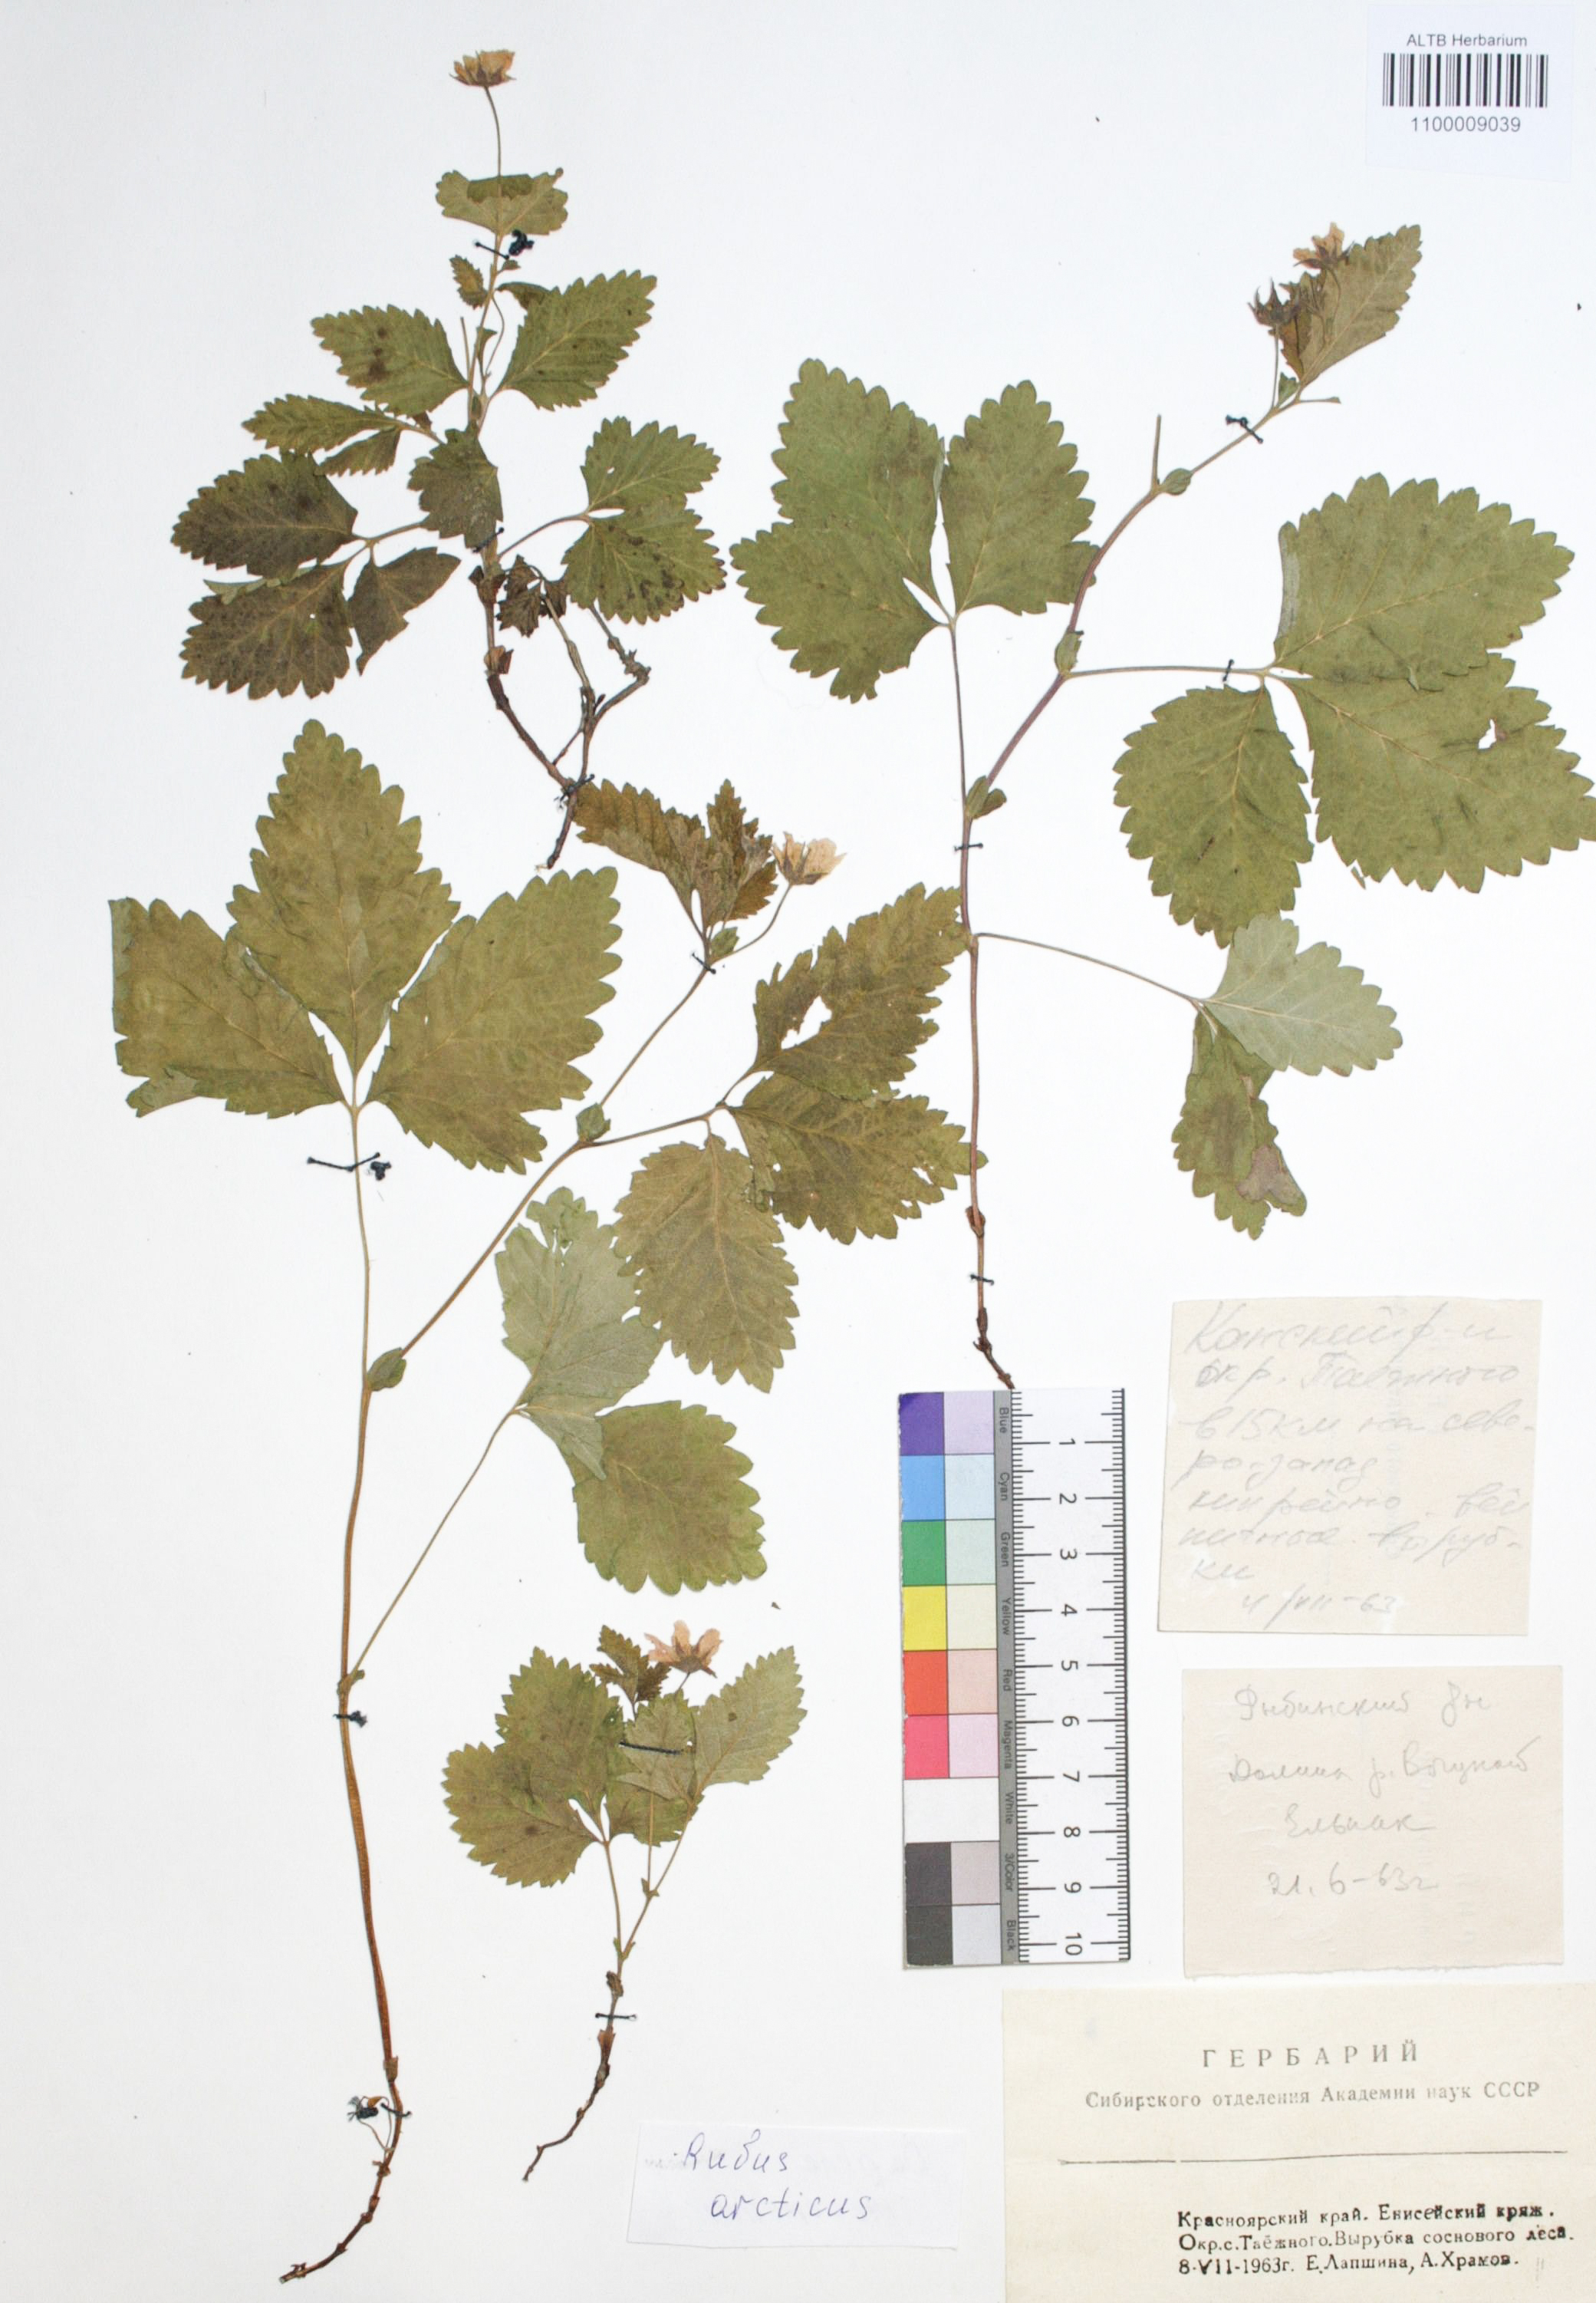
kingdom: Plantae
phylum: Tracheophyta
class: Magnoliopsida
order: Rosales
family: Rosaceae
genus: Rubus
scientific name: Rubus arcticus
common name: Arctic bramble
